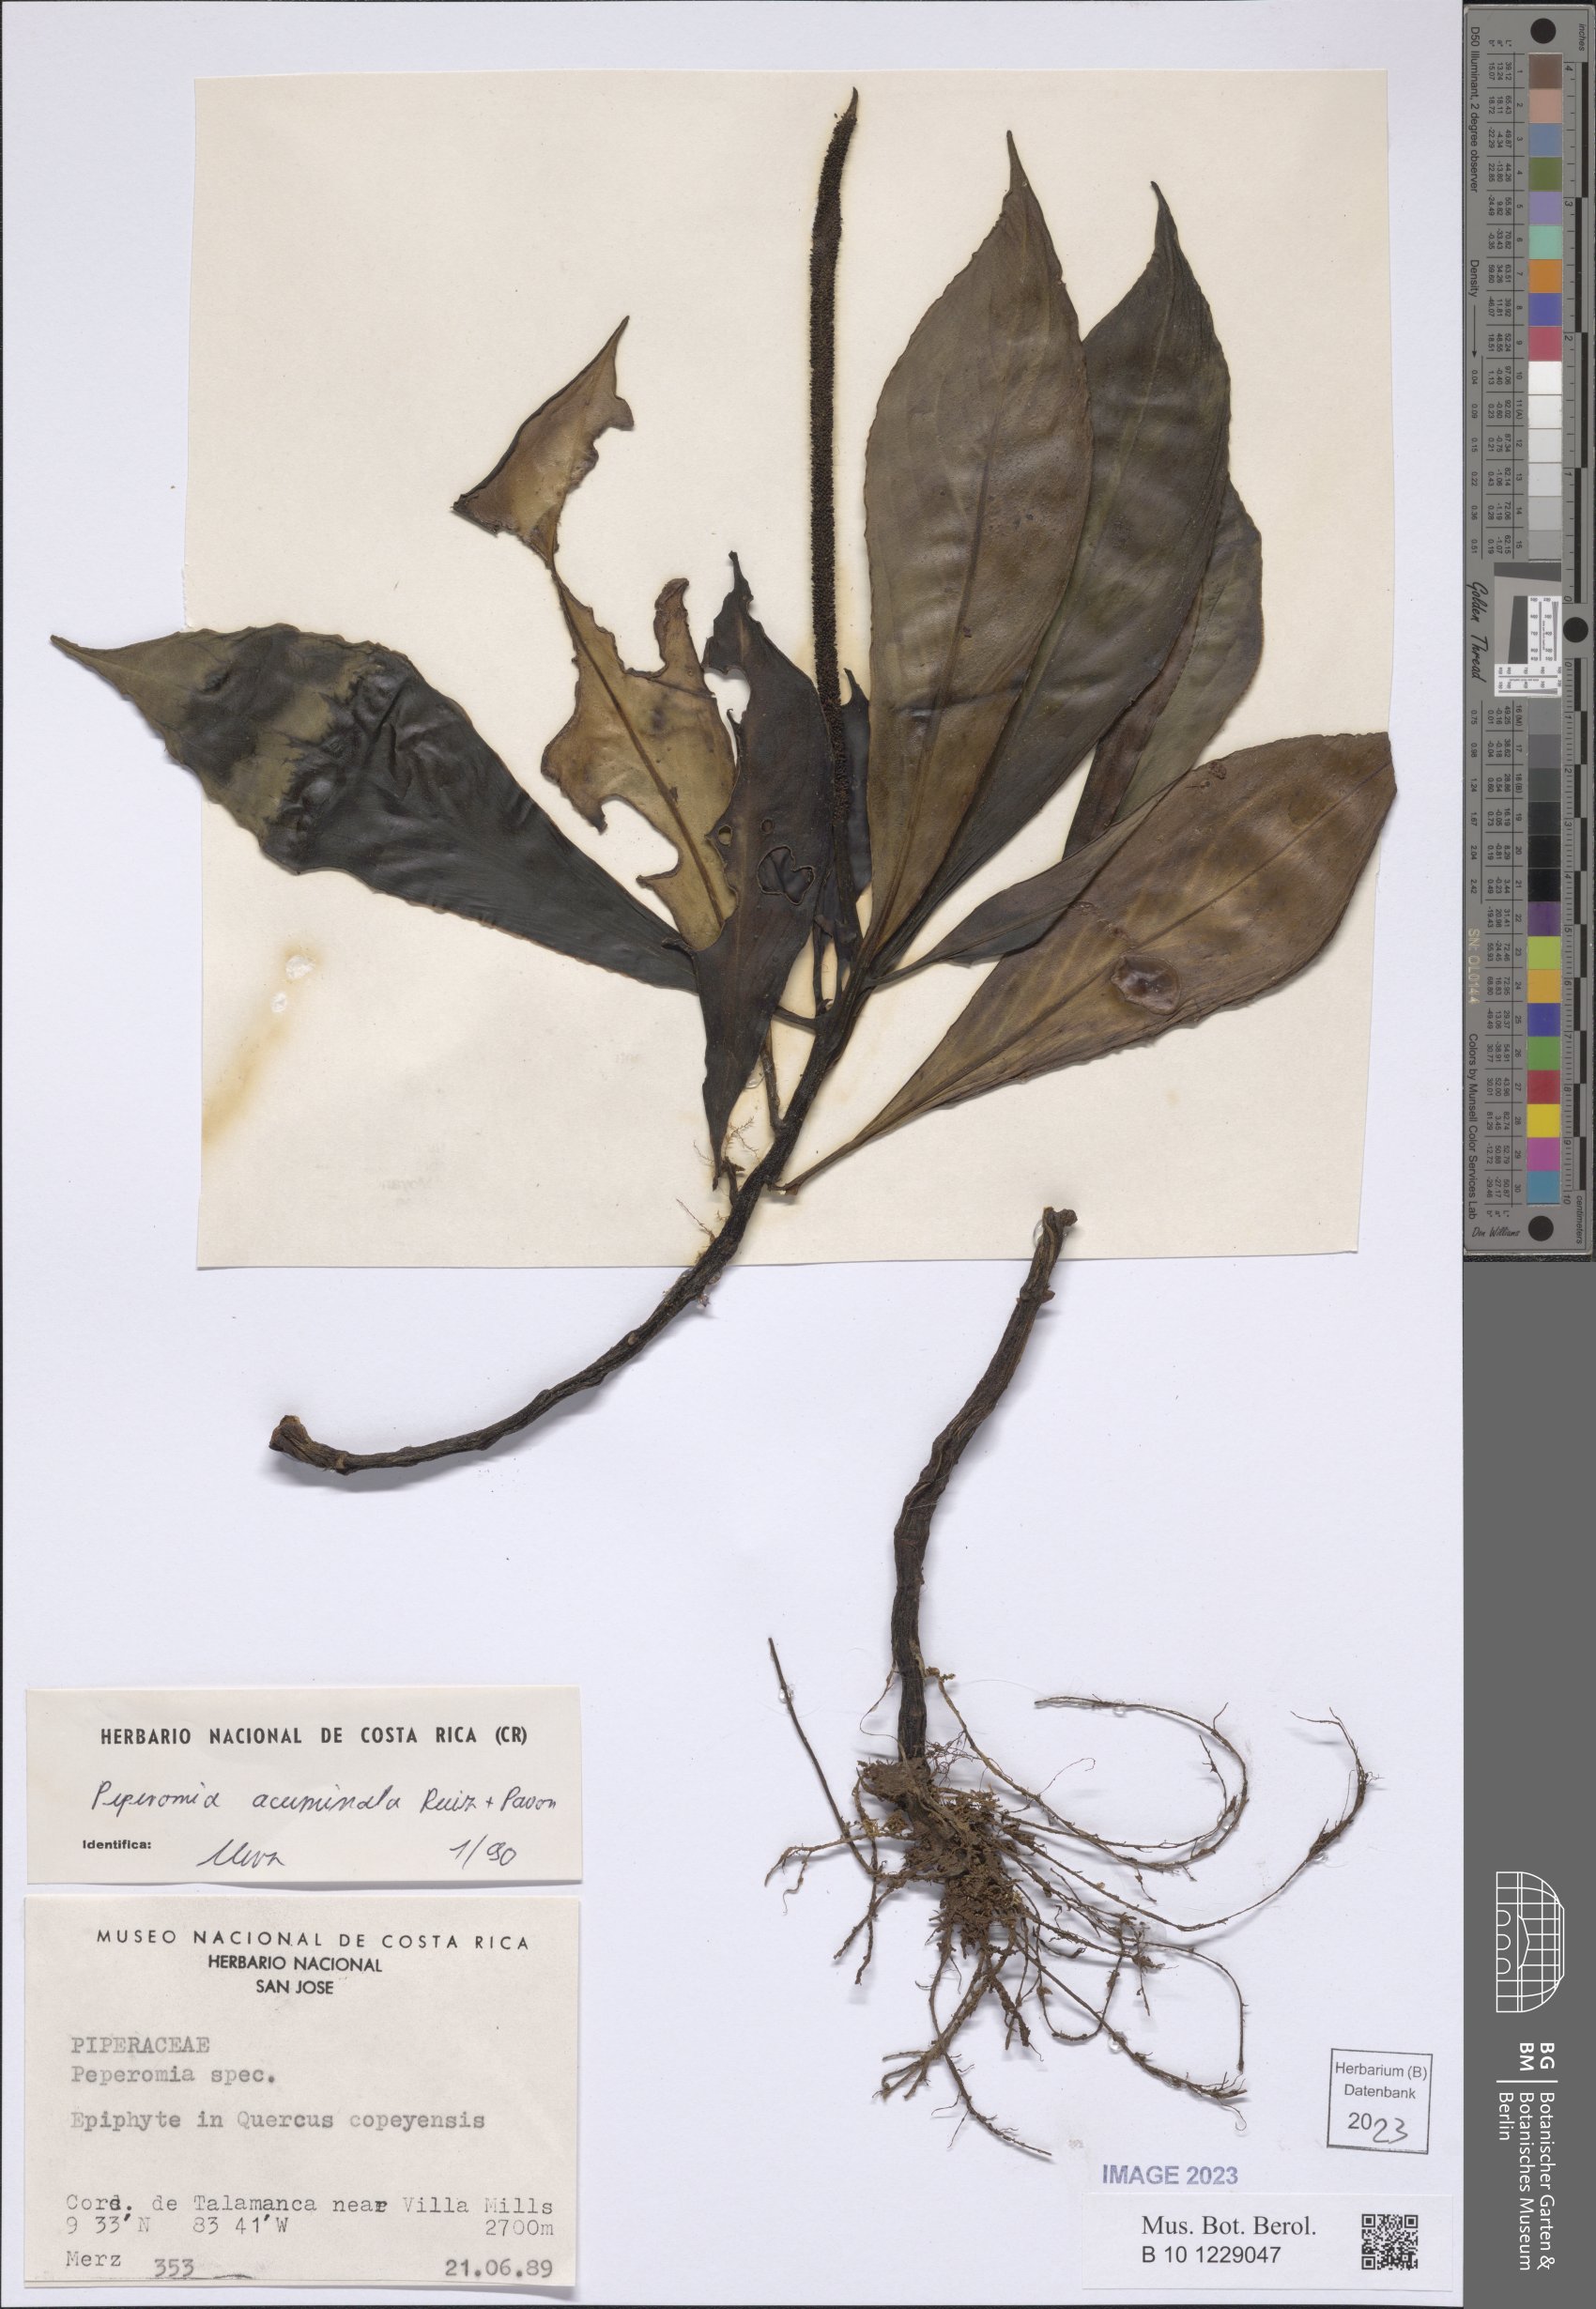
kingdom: Plantae
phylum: Tracheophyta
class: Magnoliopsida
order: Piperales
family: Piperaceae
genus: Peperomia
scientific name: Peperomia acuminata
